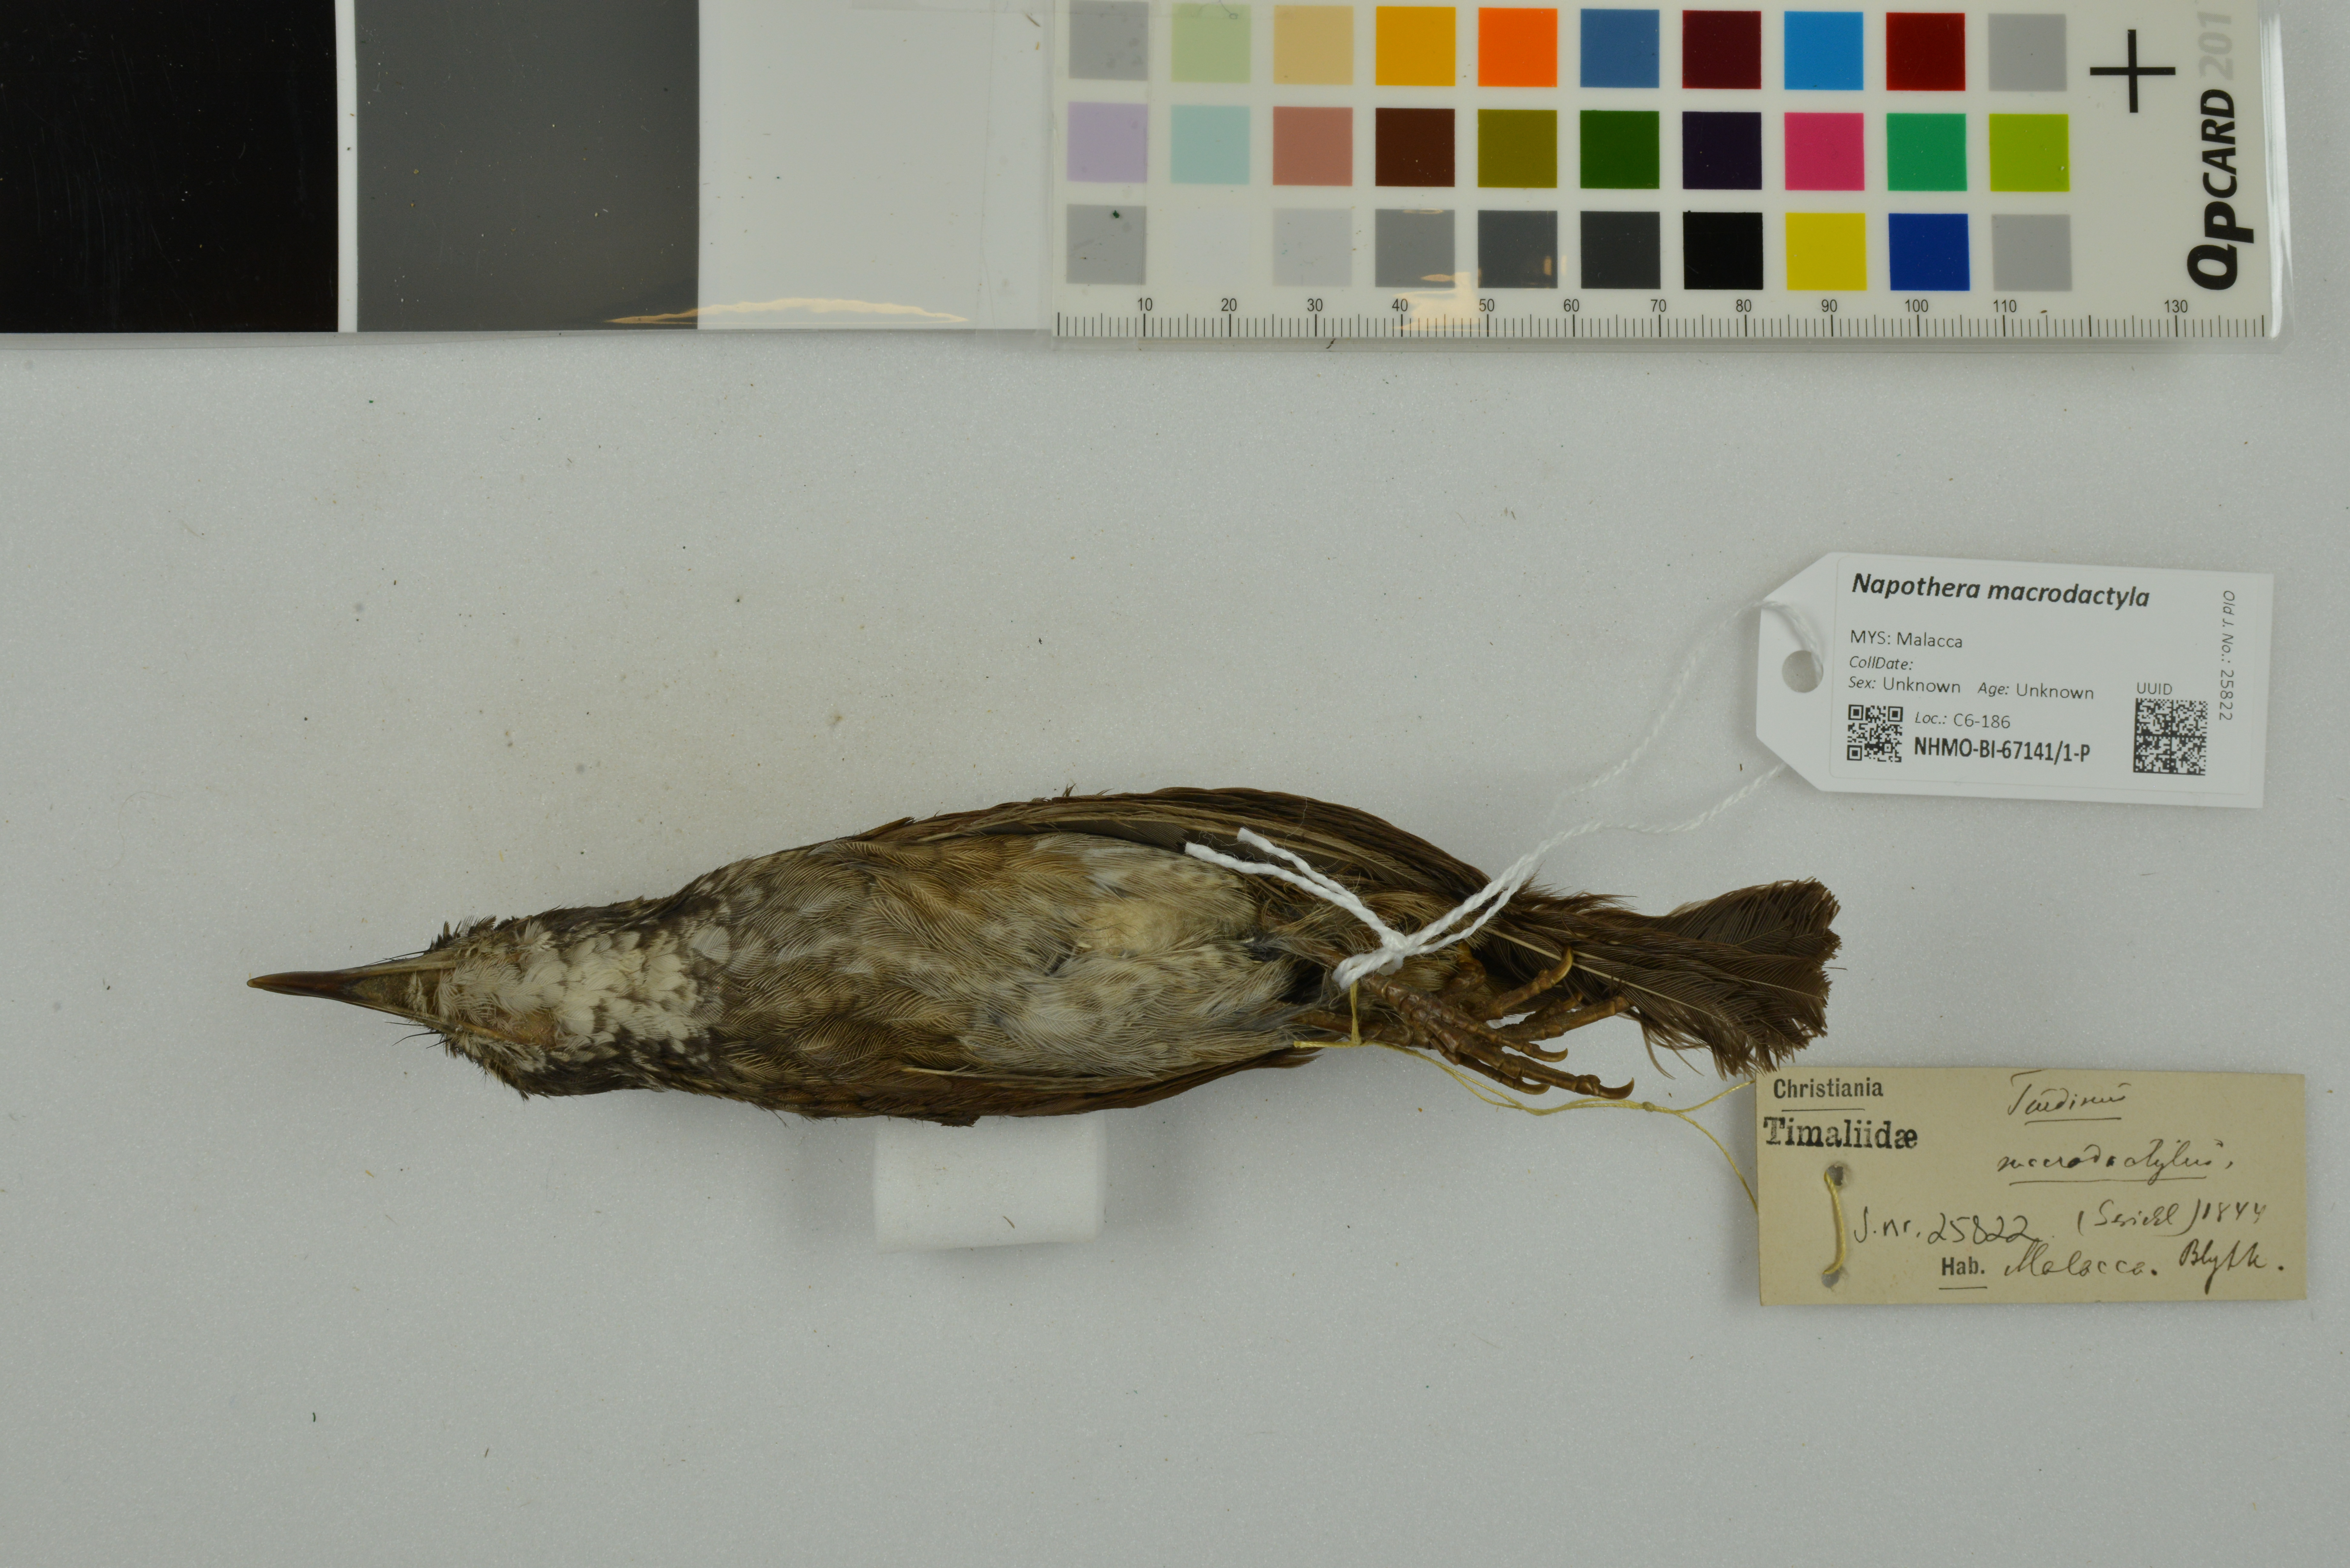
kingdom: Animalia
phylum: Chordata
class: Aves
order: Passeriformes
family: Pellorneidae
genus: Napothera
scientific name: Napothera macrodactyla
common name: Large wren-babbler
